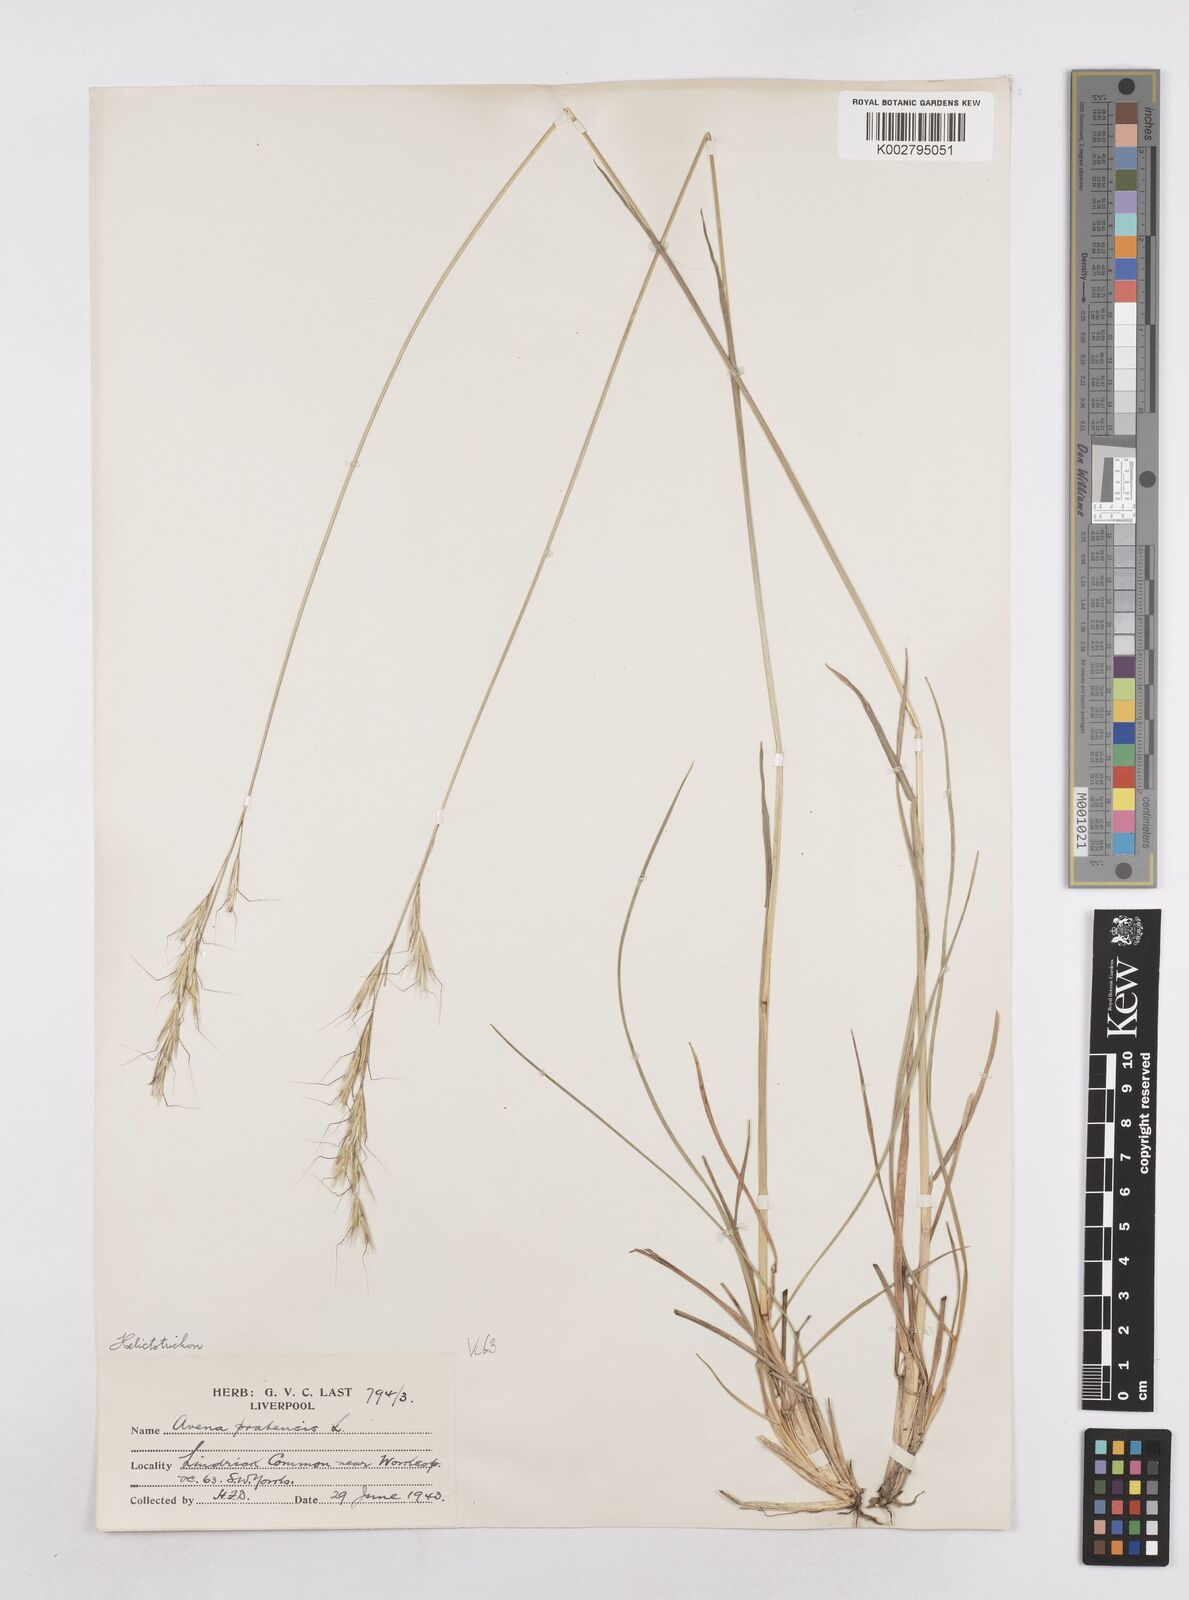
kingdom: Plantae
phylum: Tracheophyta
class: Liliopsida
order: Poales
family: Poaceae
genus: Helictochloa
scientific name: Helictochloa pratensis
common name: Meadow oat grass
